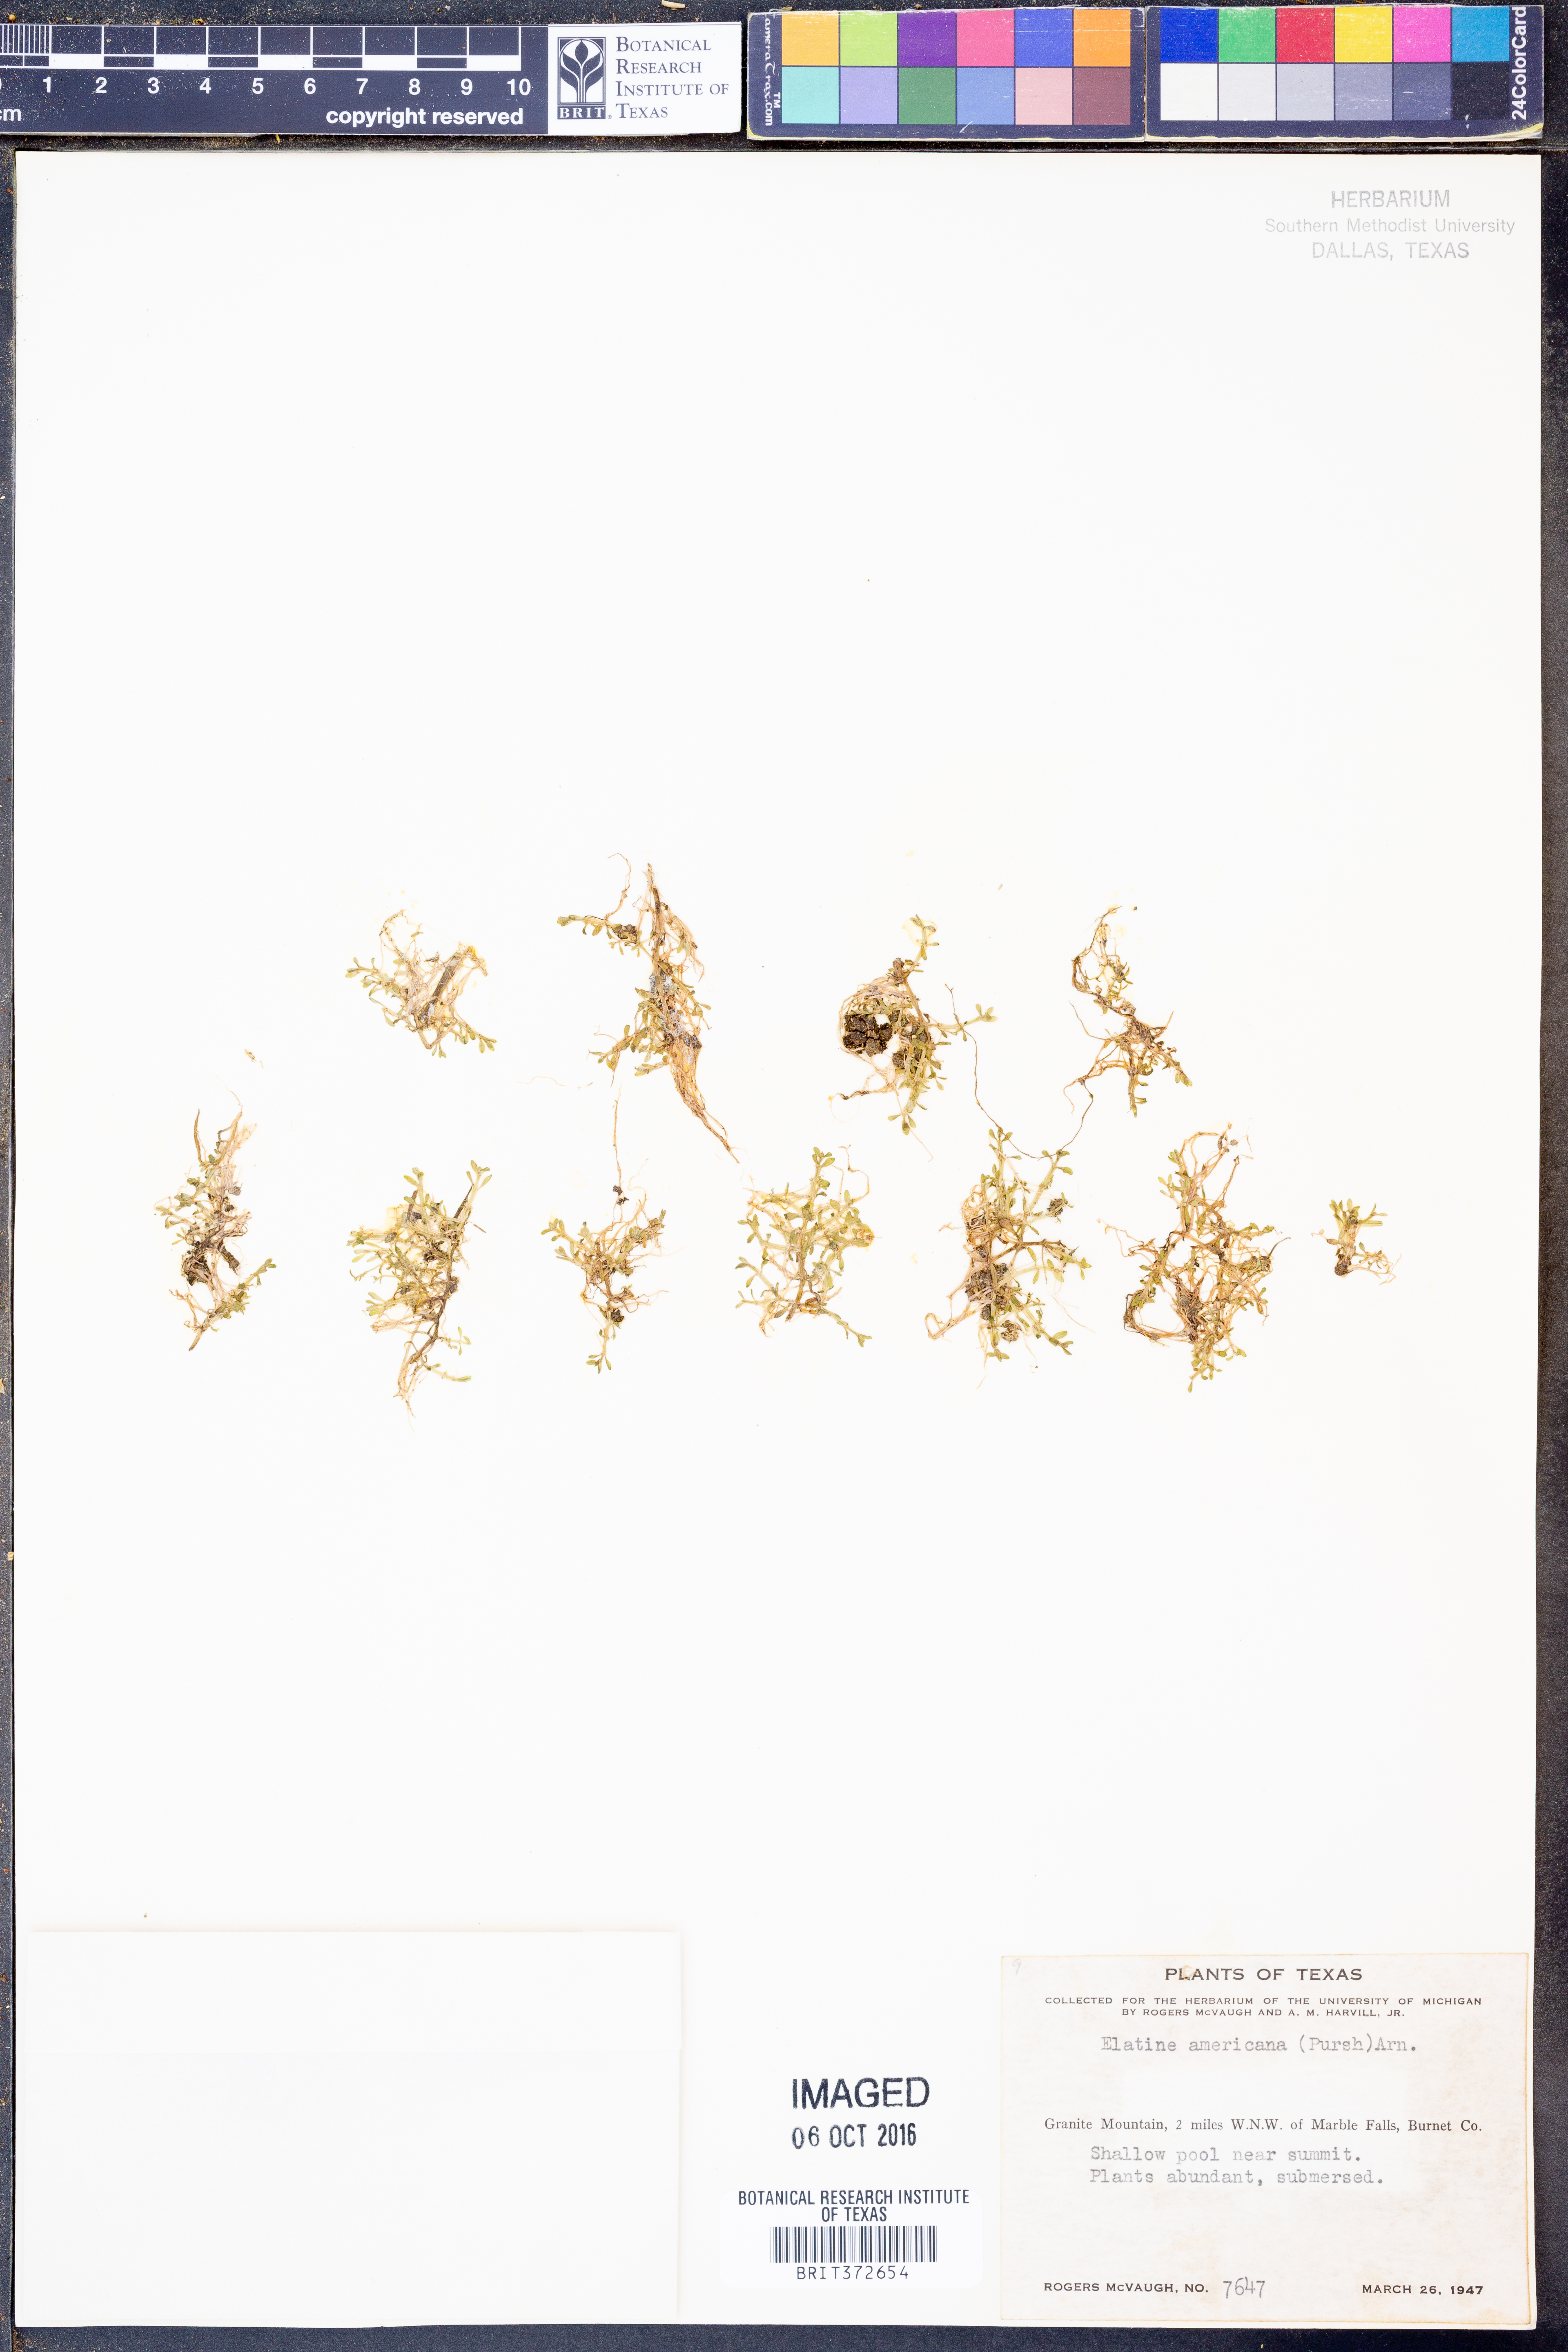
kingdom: Plantae
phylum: Tracheophyta
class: Magnoliopsida
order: Malpighiales
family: Elatinaceae
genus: Elatine
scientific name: Elatine americana
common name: American waterwort
